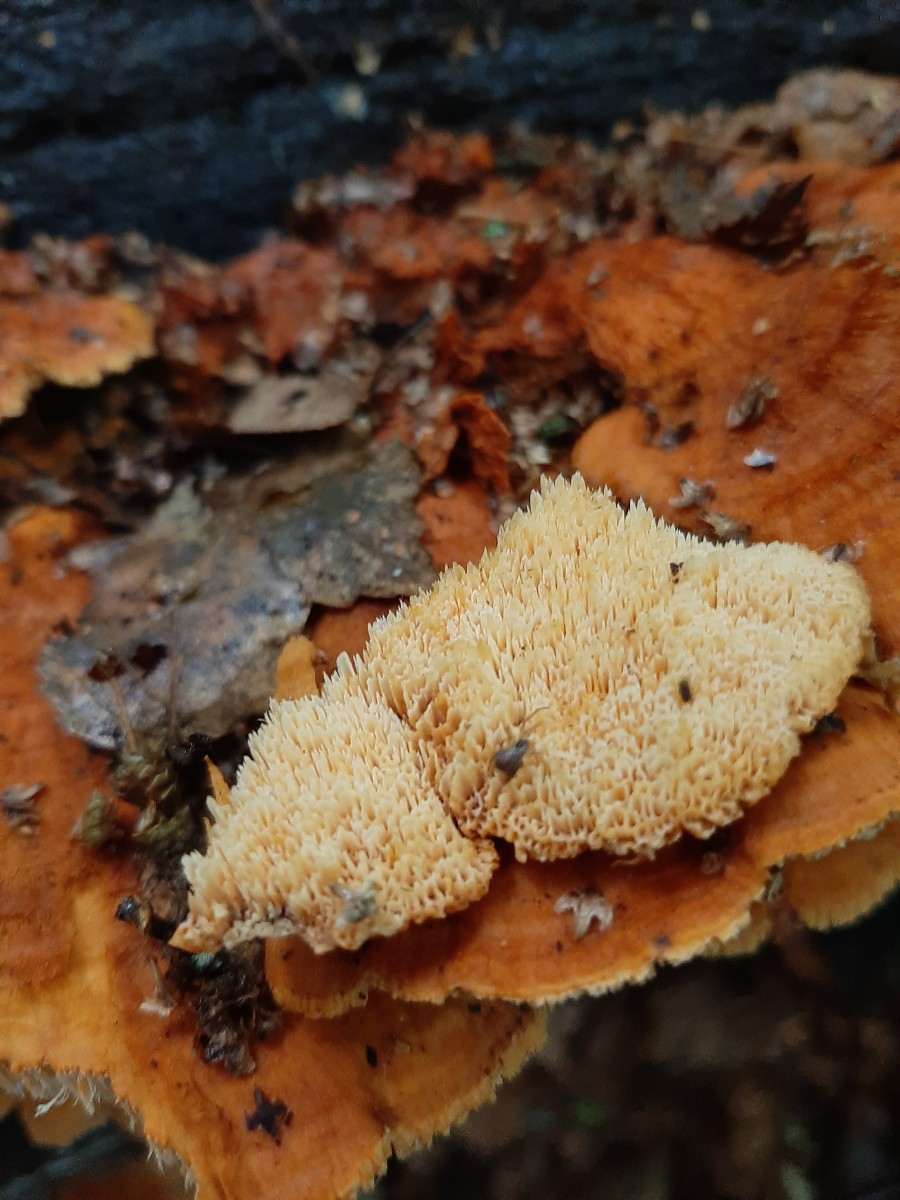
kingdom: Fungi
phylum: Basidiomycota
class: Agaricomycetes
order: Polyporales
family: Pycnoporellaceae
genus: Pycnoporellus
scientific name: Pycnoporellus fulgens
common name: flammeporesvamp
